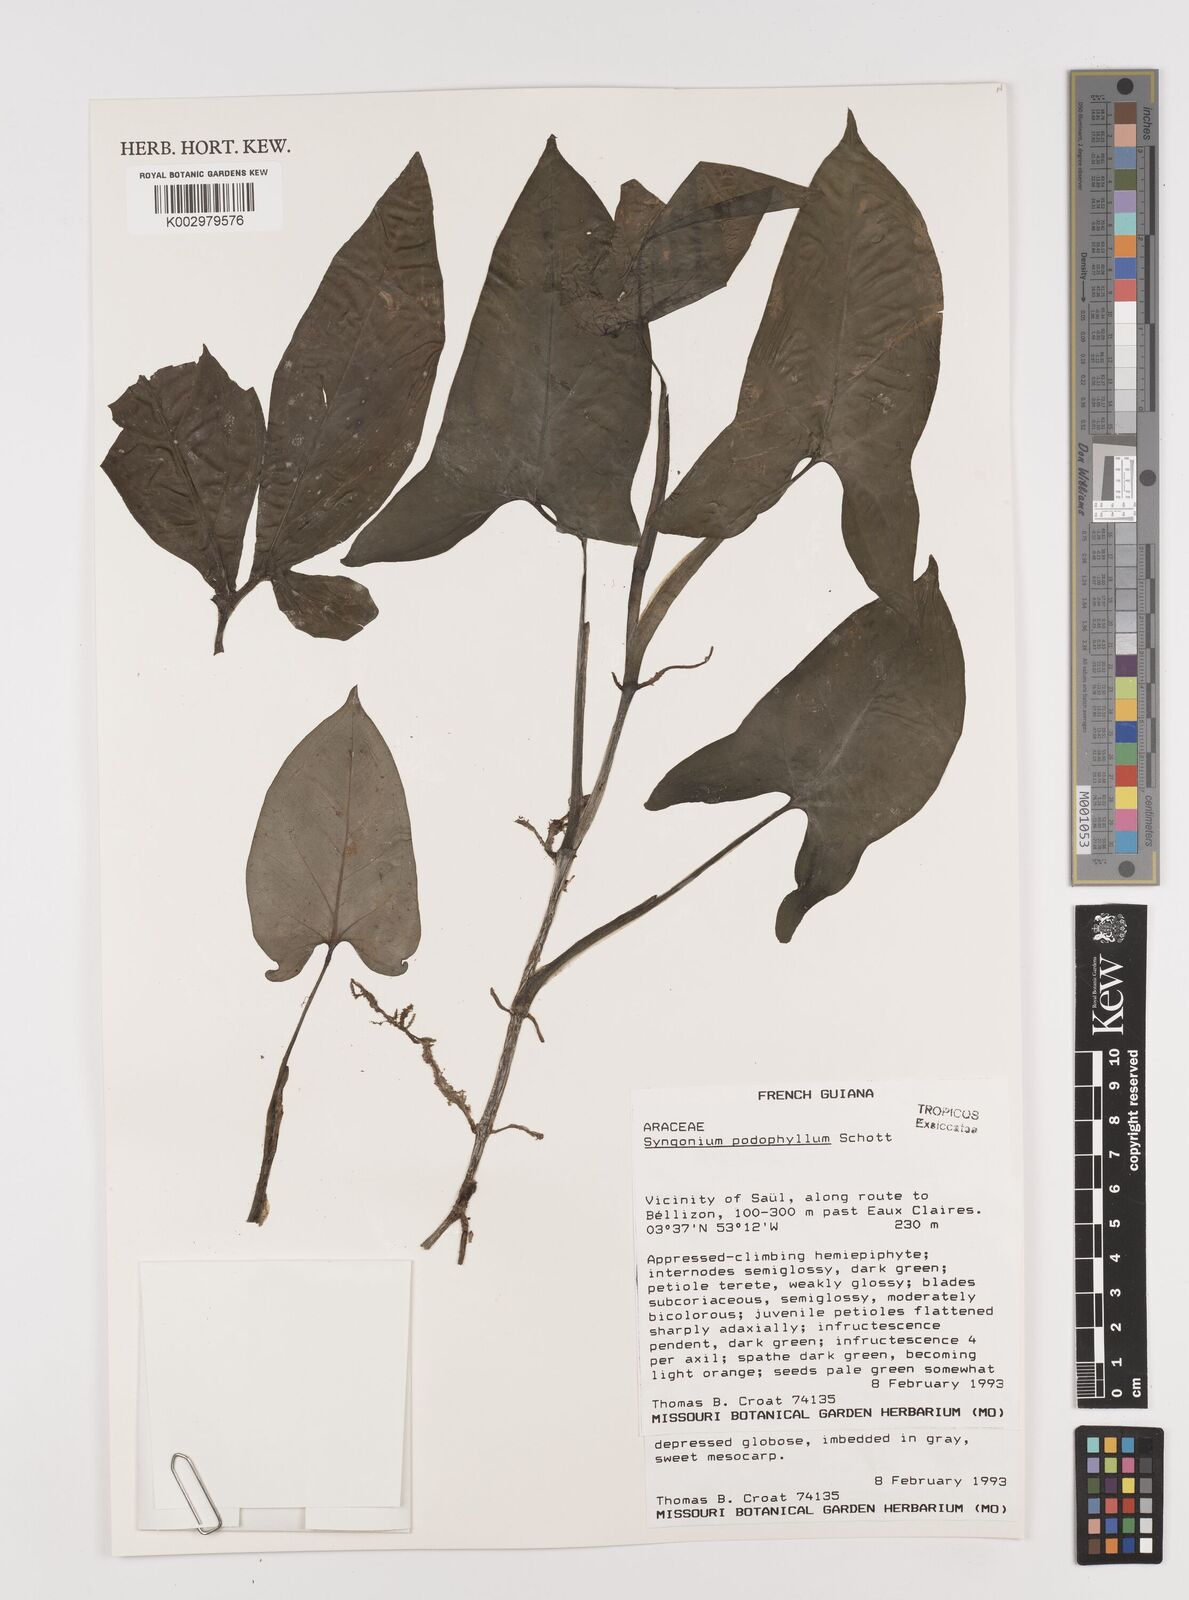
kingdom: Plantae
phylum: Tracheophyta
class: Liliopsida
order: Alismatales
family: Araceae
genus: Syngonium
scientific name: Syngonium podophyllum
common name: American evergreen
